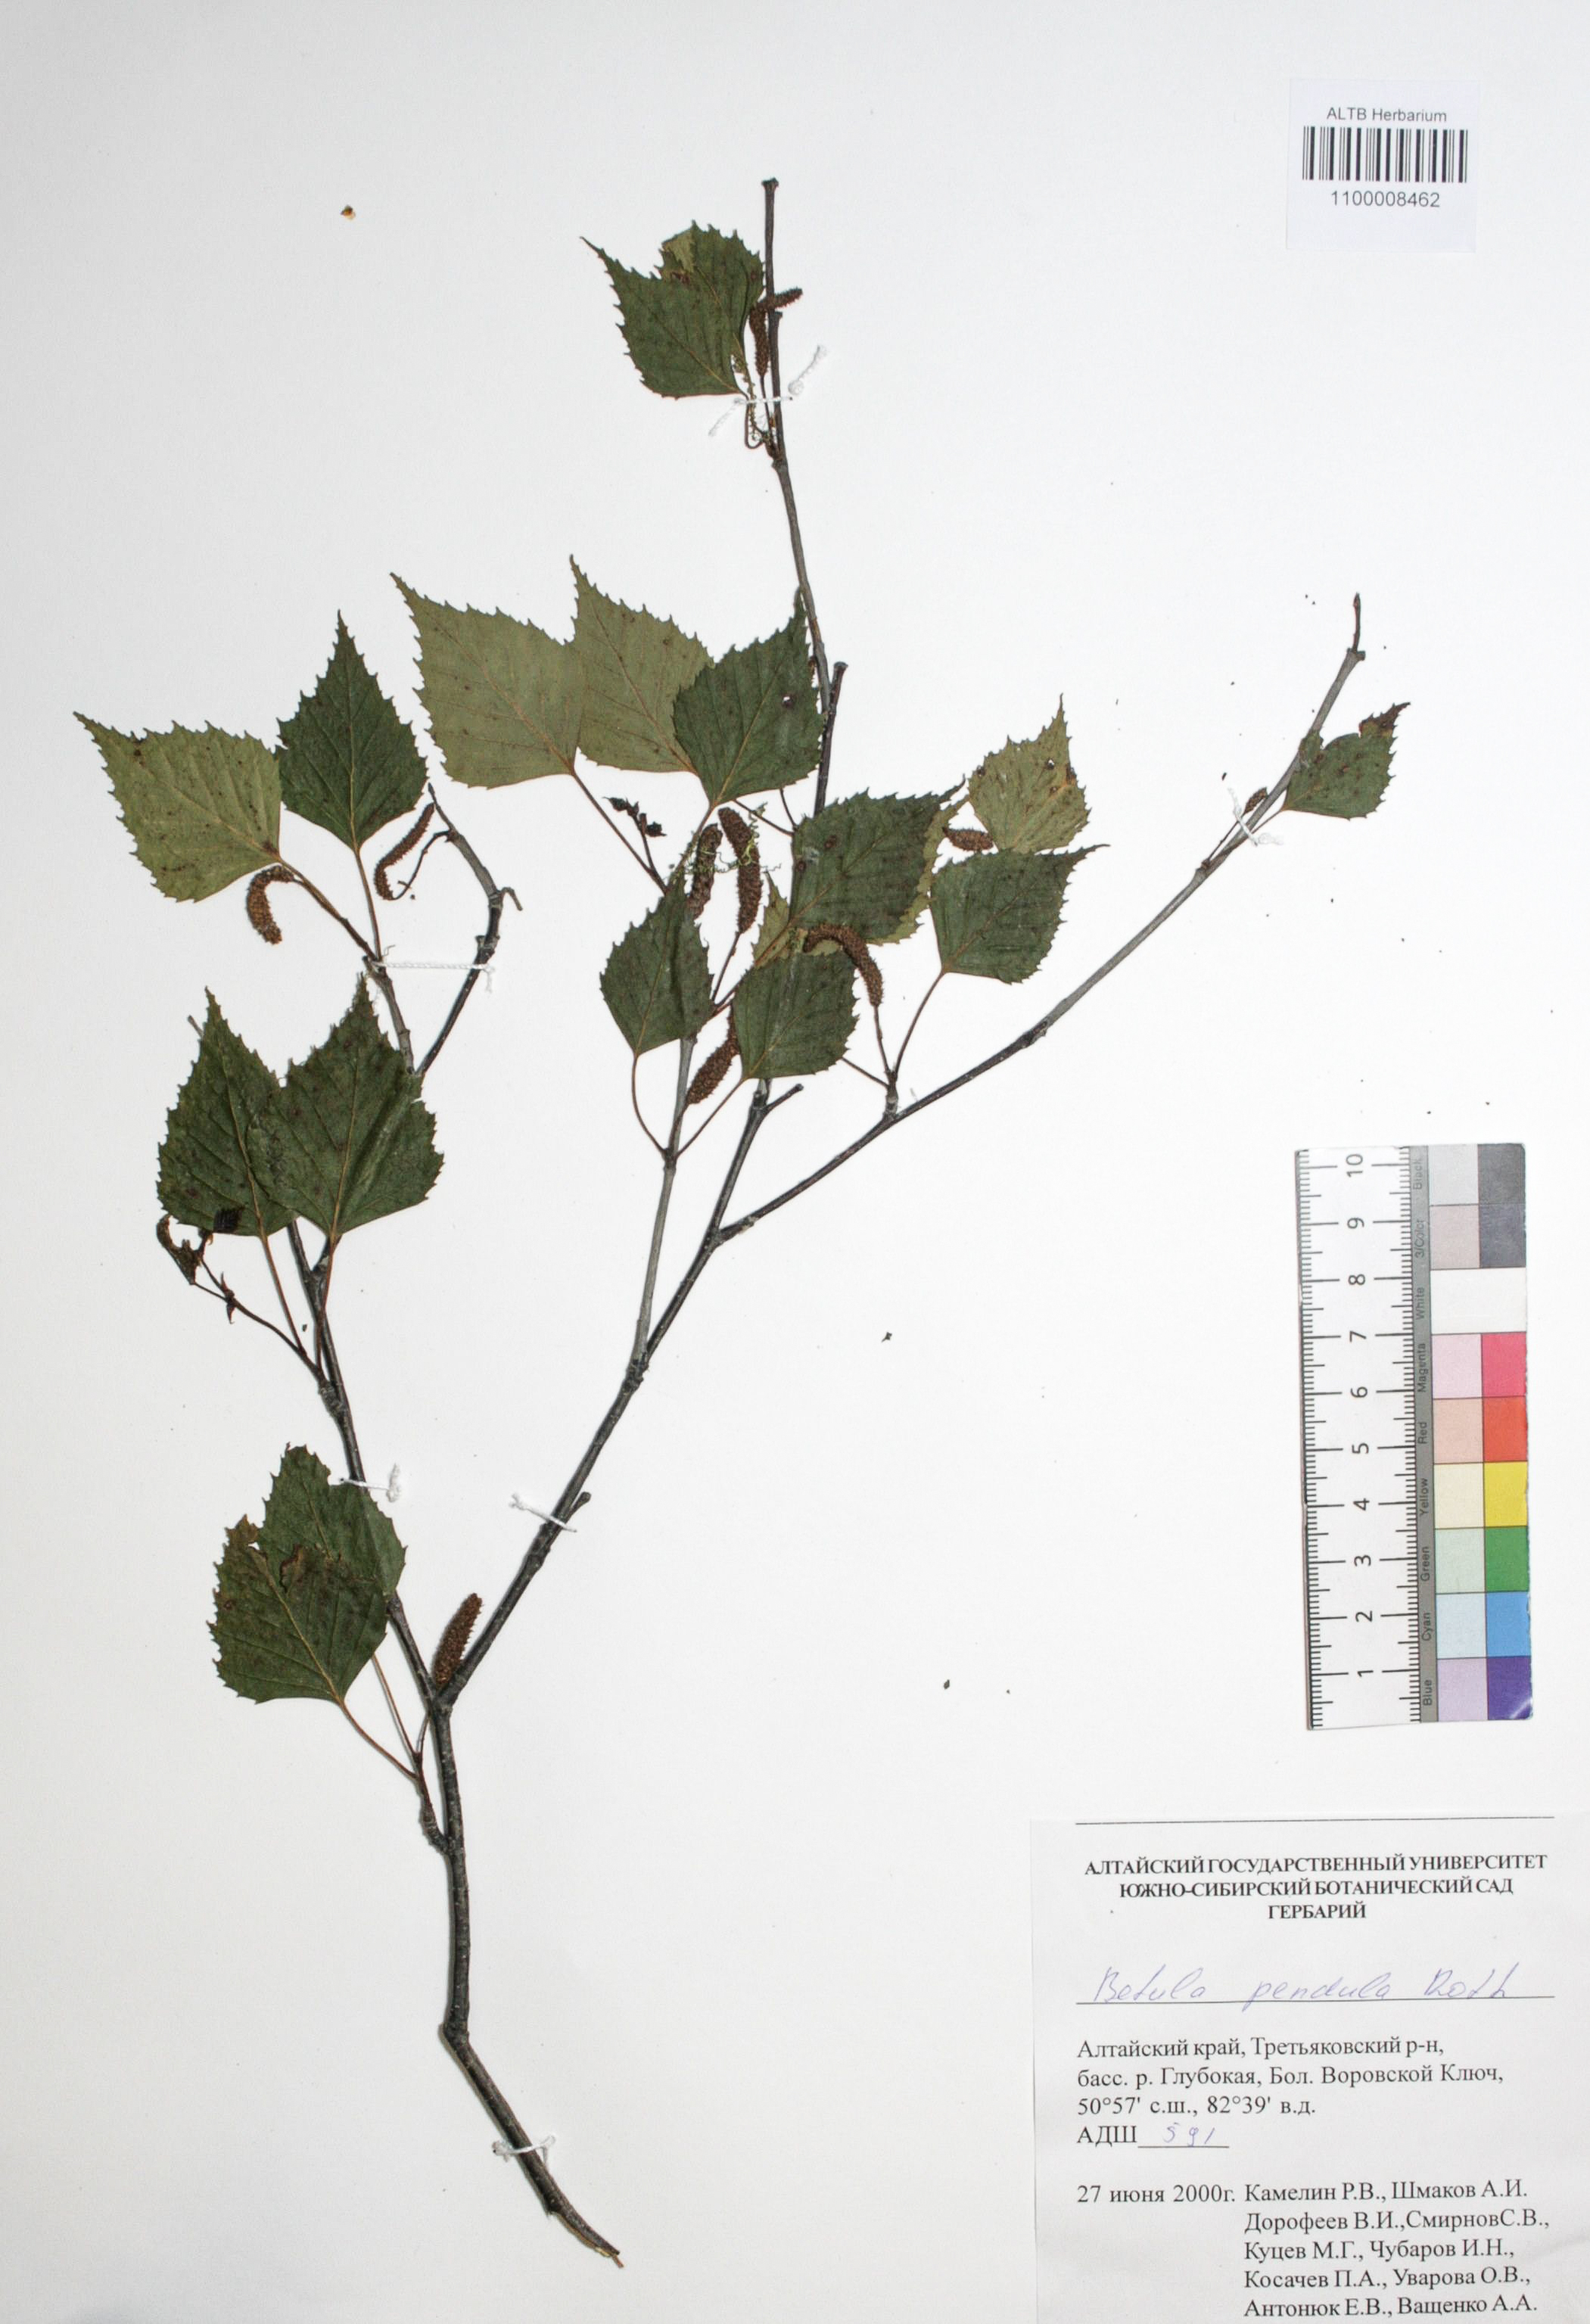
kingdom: Plantae
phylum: Tracheophyta
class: Magnoliopsida
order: Fagales
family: Betulaceae
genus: Betula
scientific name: Betula pendula
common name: Silver birch
